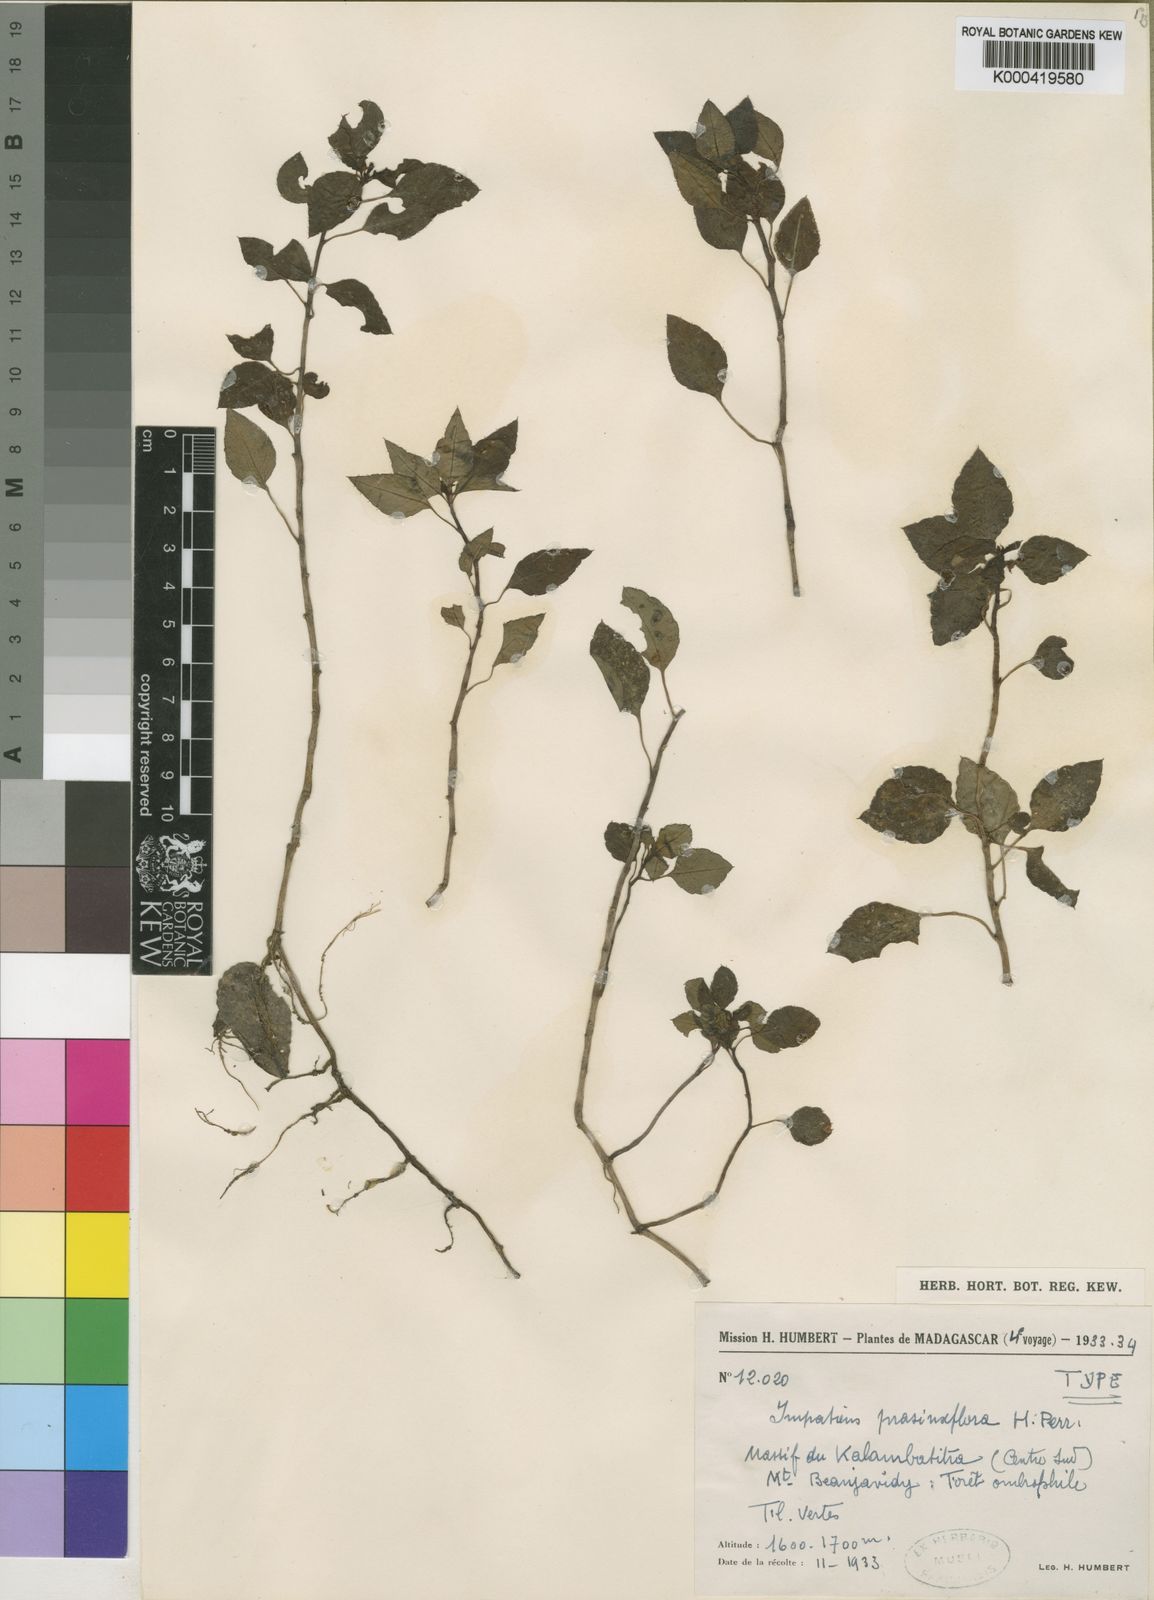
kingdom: Plantae
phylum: Tracheophyta
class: Magnoliopsida
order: Ericales
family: Balsaminaceae
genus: Impatiens
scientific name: Impatiens prasiniflora
